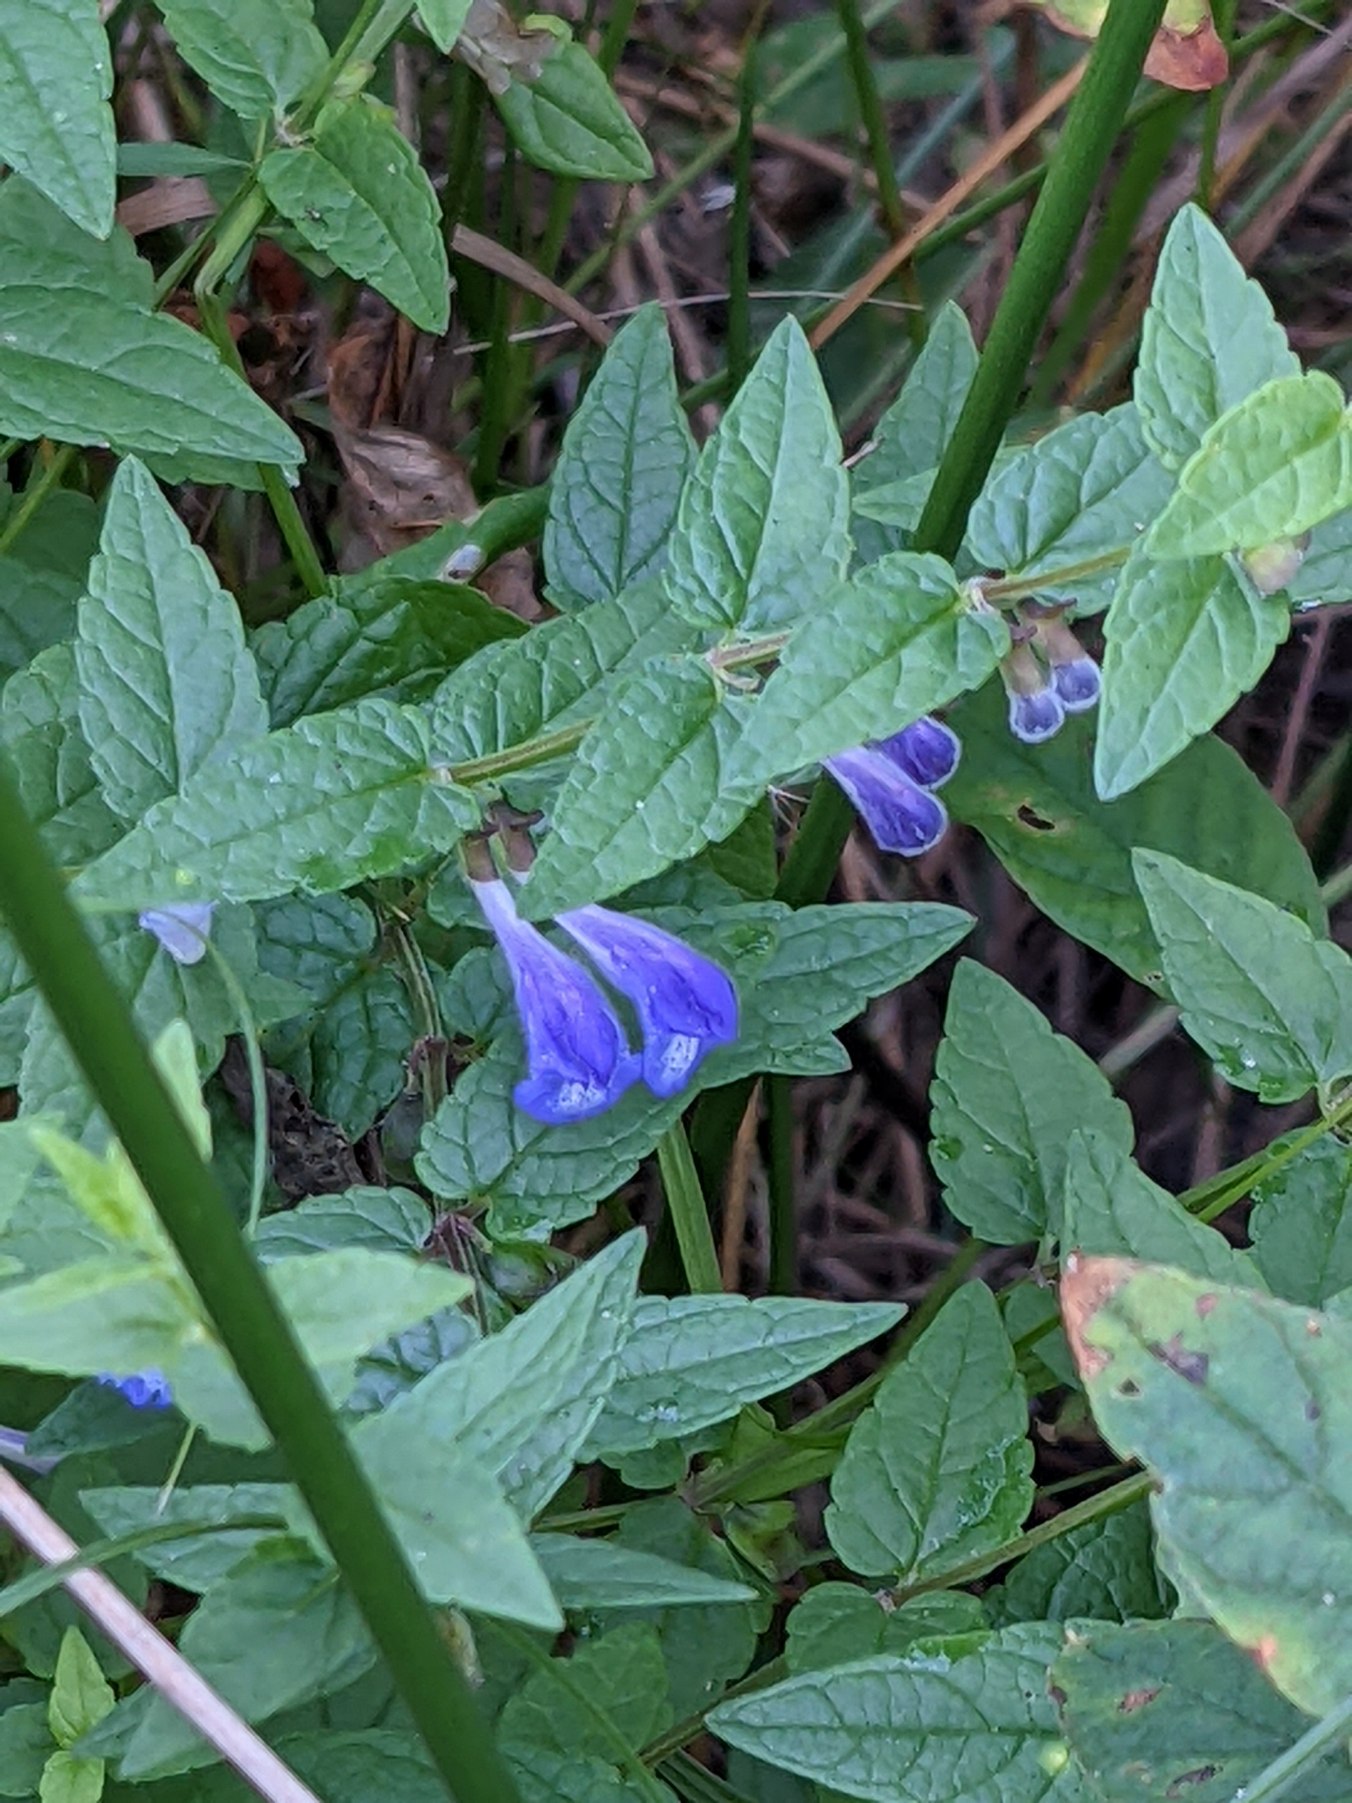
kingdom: Plantae
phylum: Tracheophyta
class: Magnoliopsida
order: Lamiales
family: Lamiaceae
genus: Scutellaria
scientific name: Scutellaria galericulata
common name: Almindelig skjolddrager
